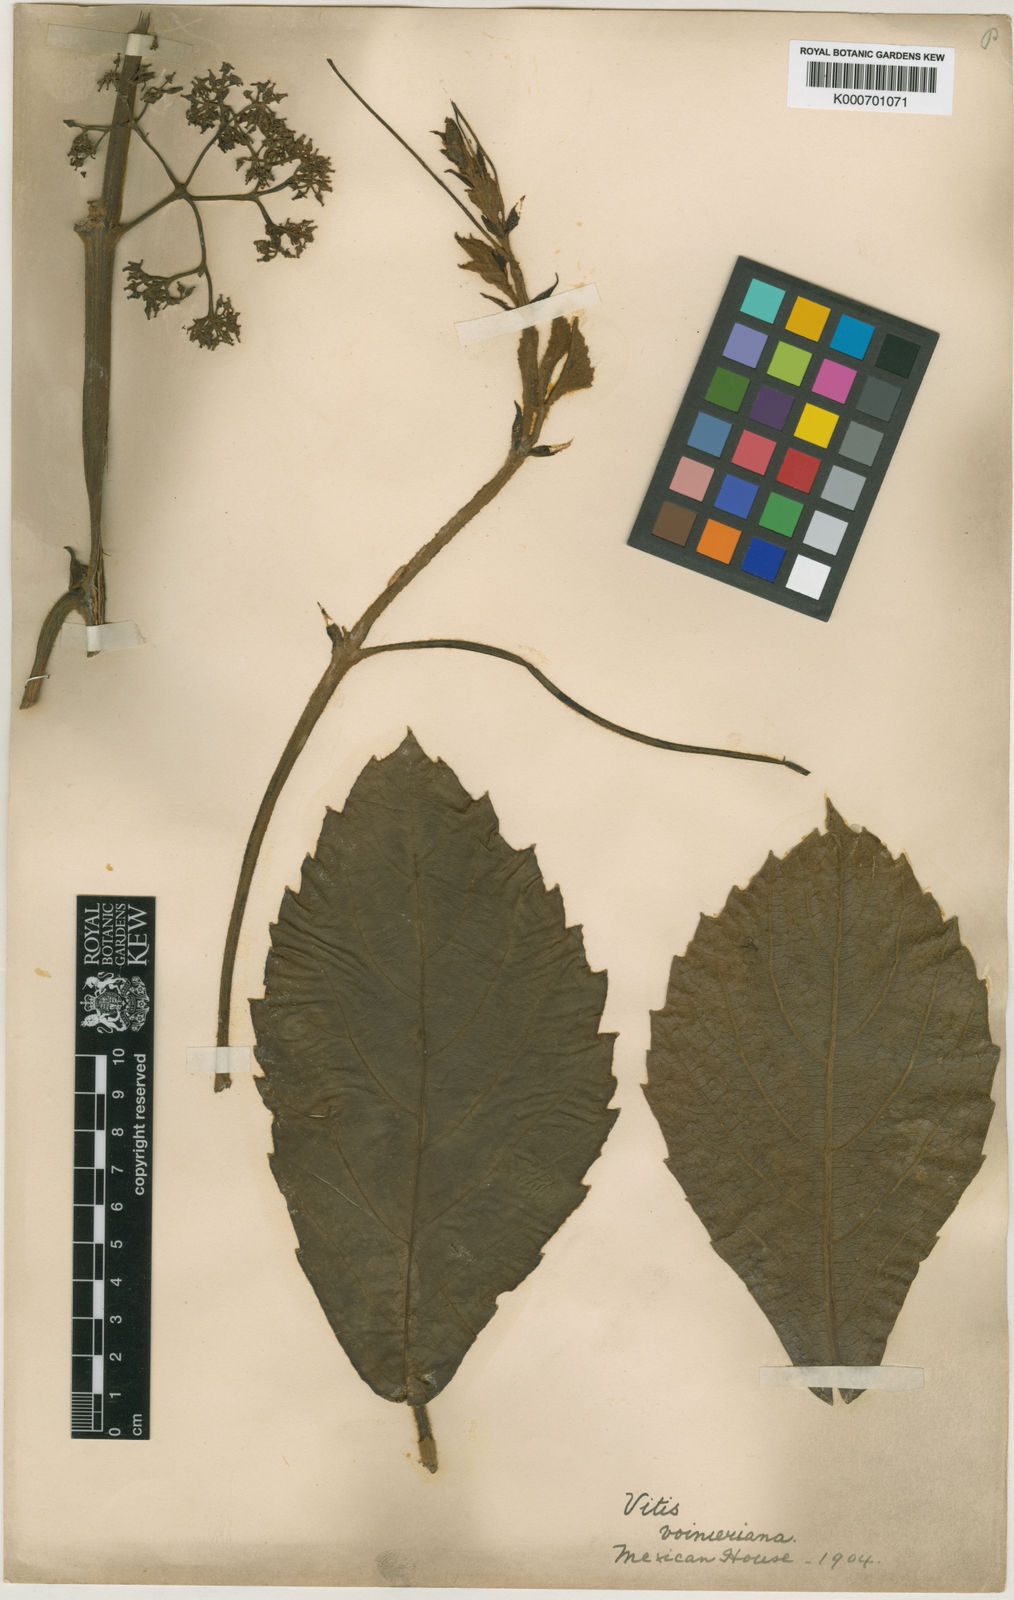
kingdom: Plantae
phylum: Tracheophyta
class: Magnoliopsida
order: Vitales
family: Vitaceae
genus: Tetrastigma
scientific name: Tetrastigma voinierianum
